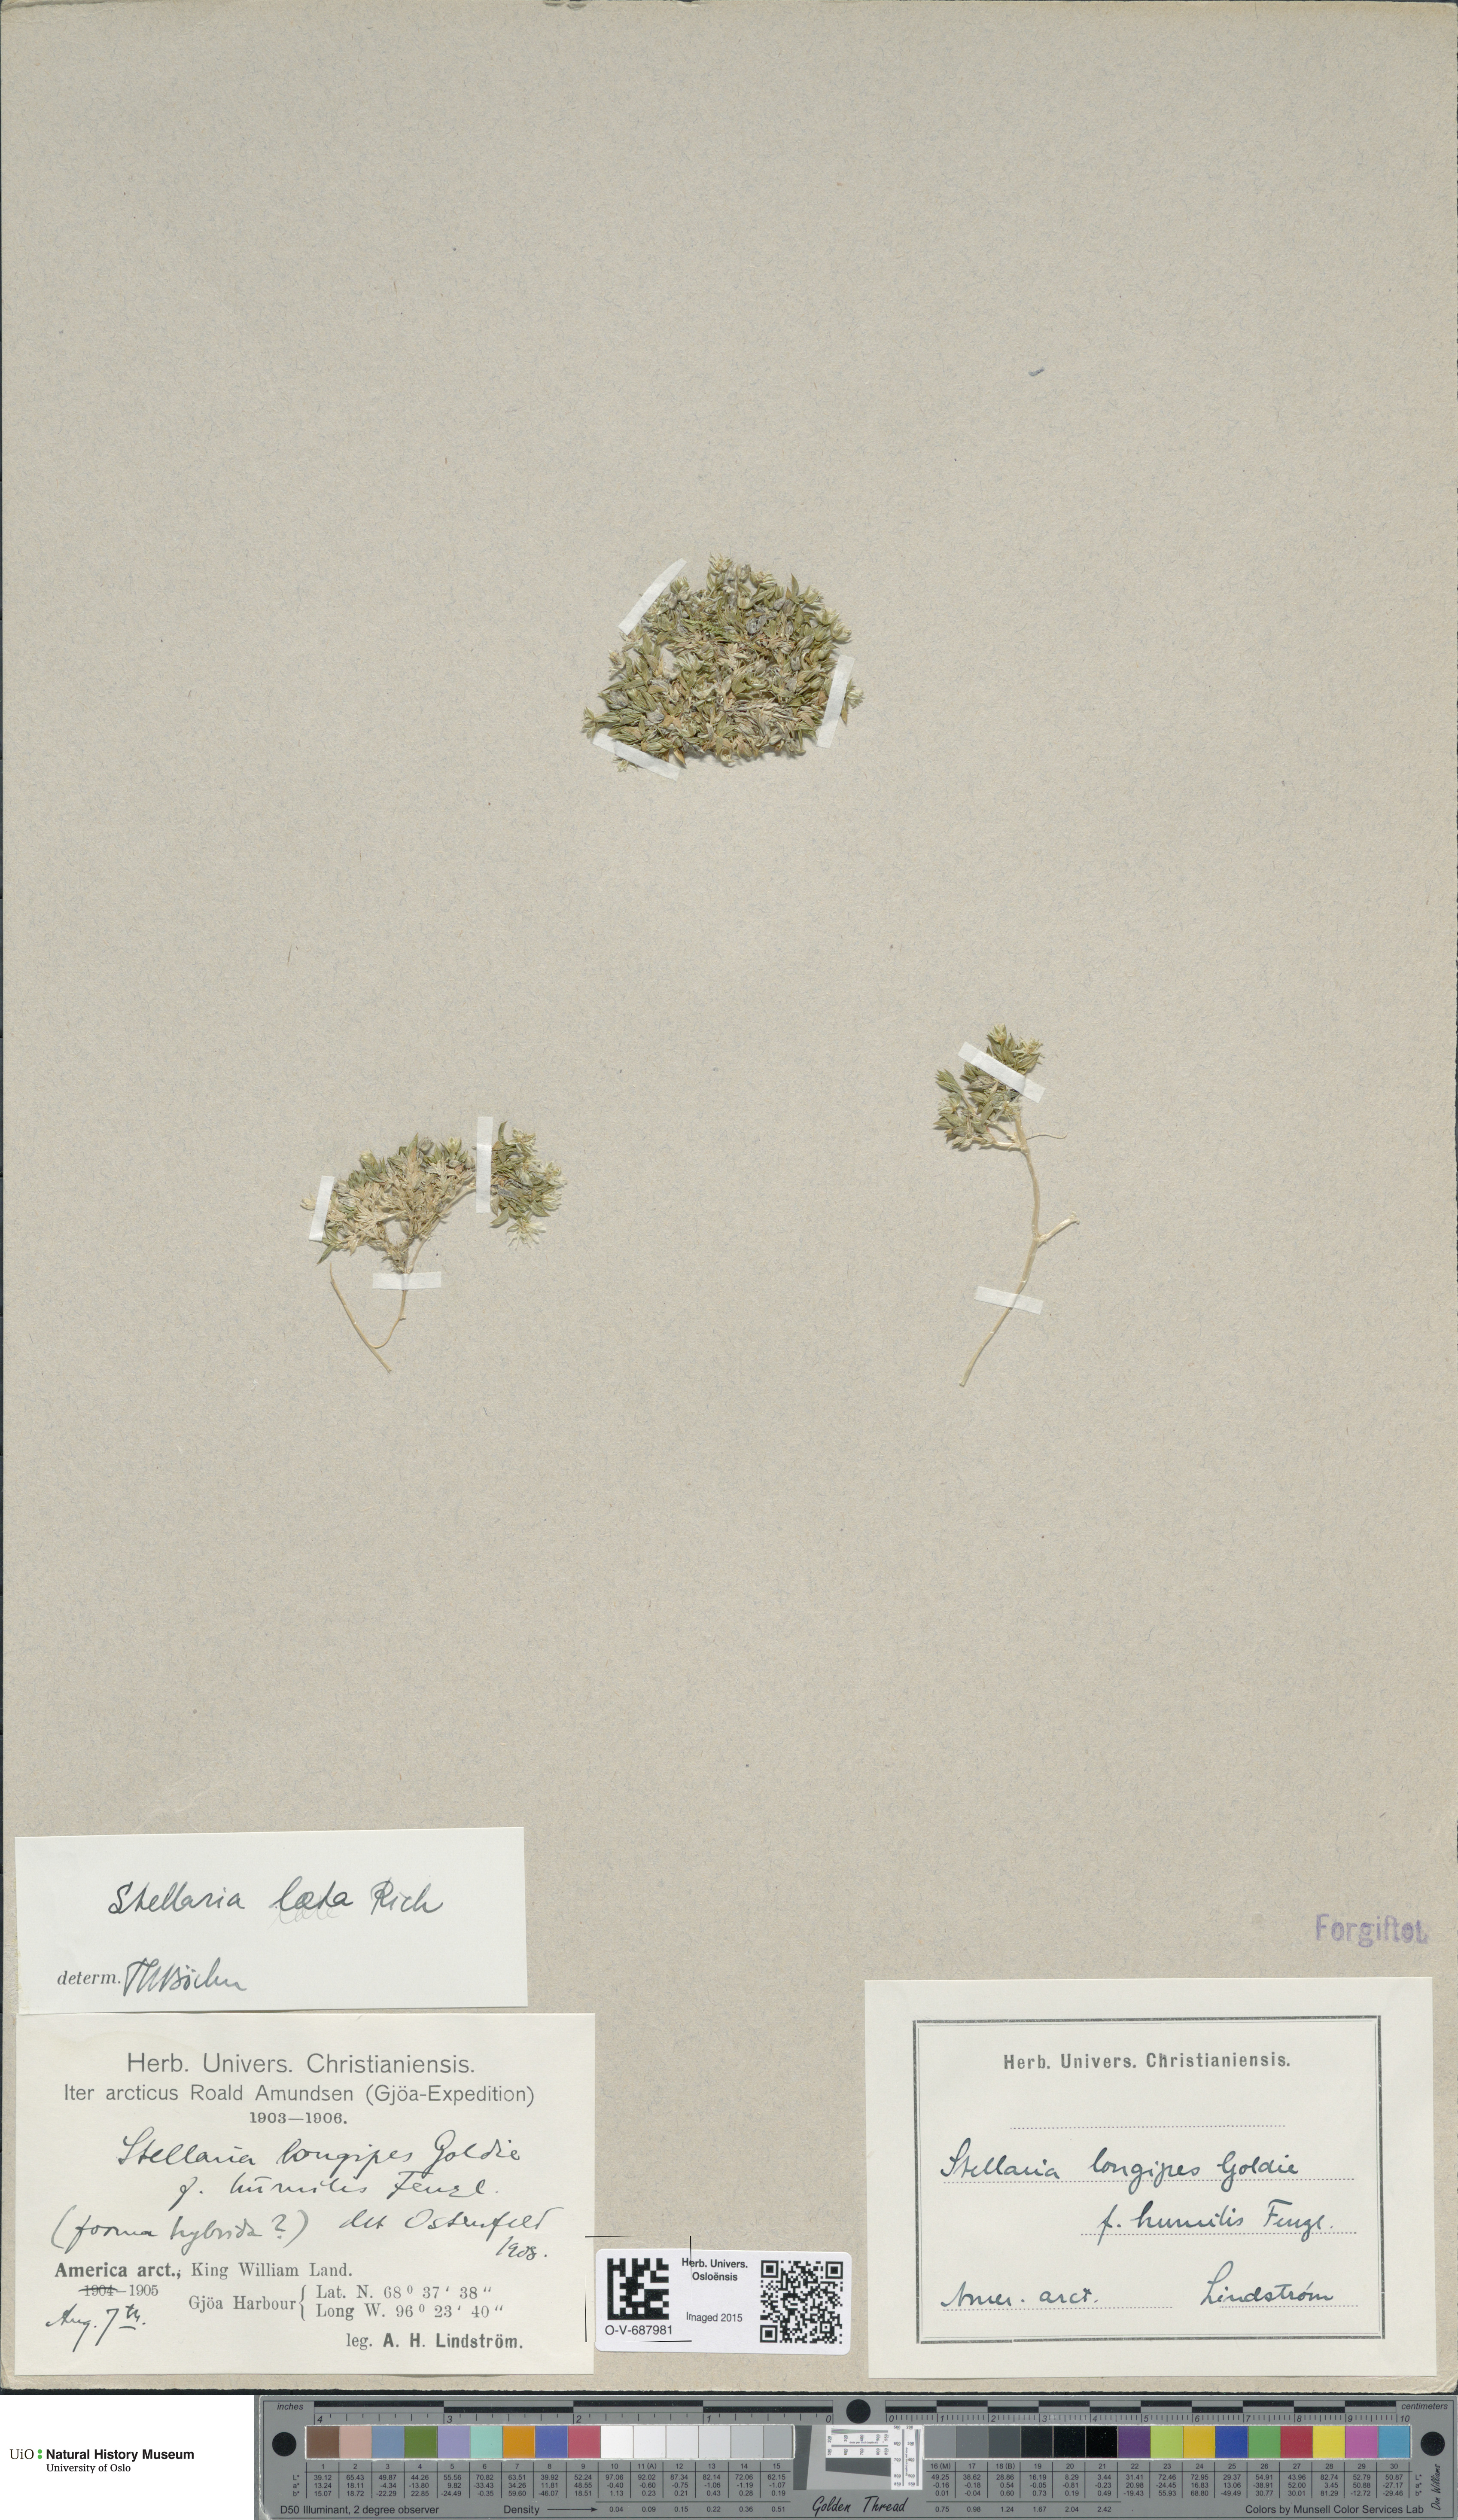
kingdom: Plantae
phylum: Tracheophyta
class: Magnoliopsida
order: Caryophyllales
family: Caryophyllaceae
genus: Stellaria
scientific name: Stellaria laeta
